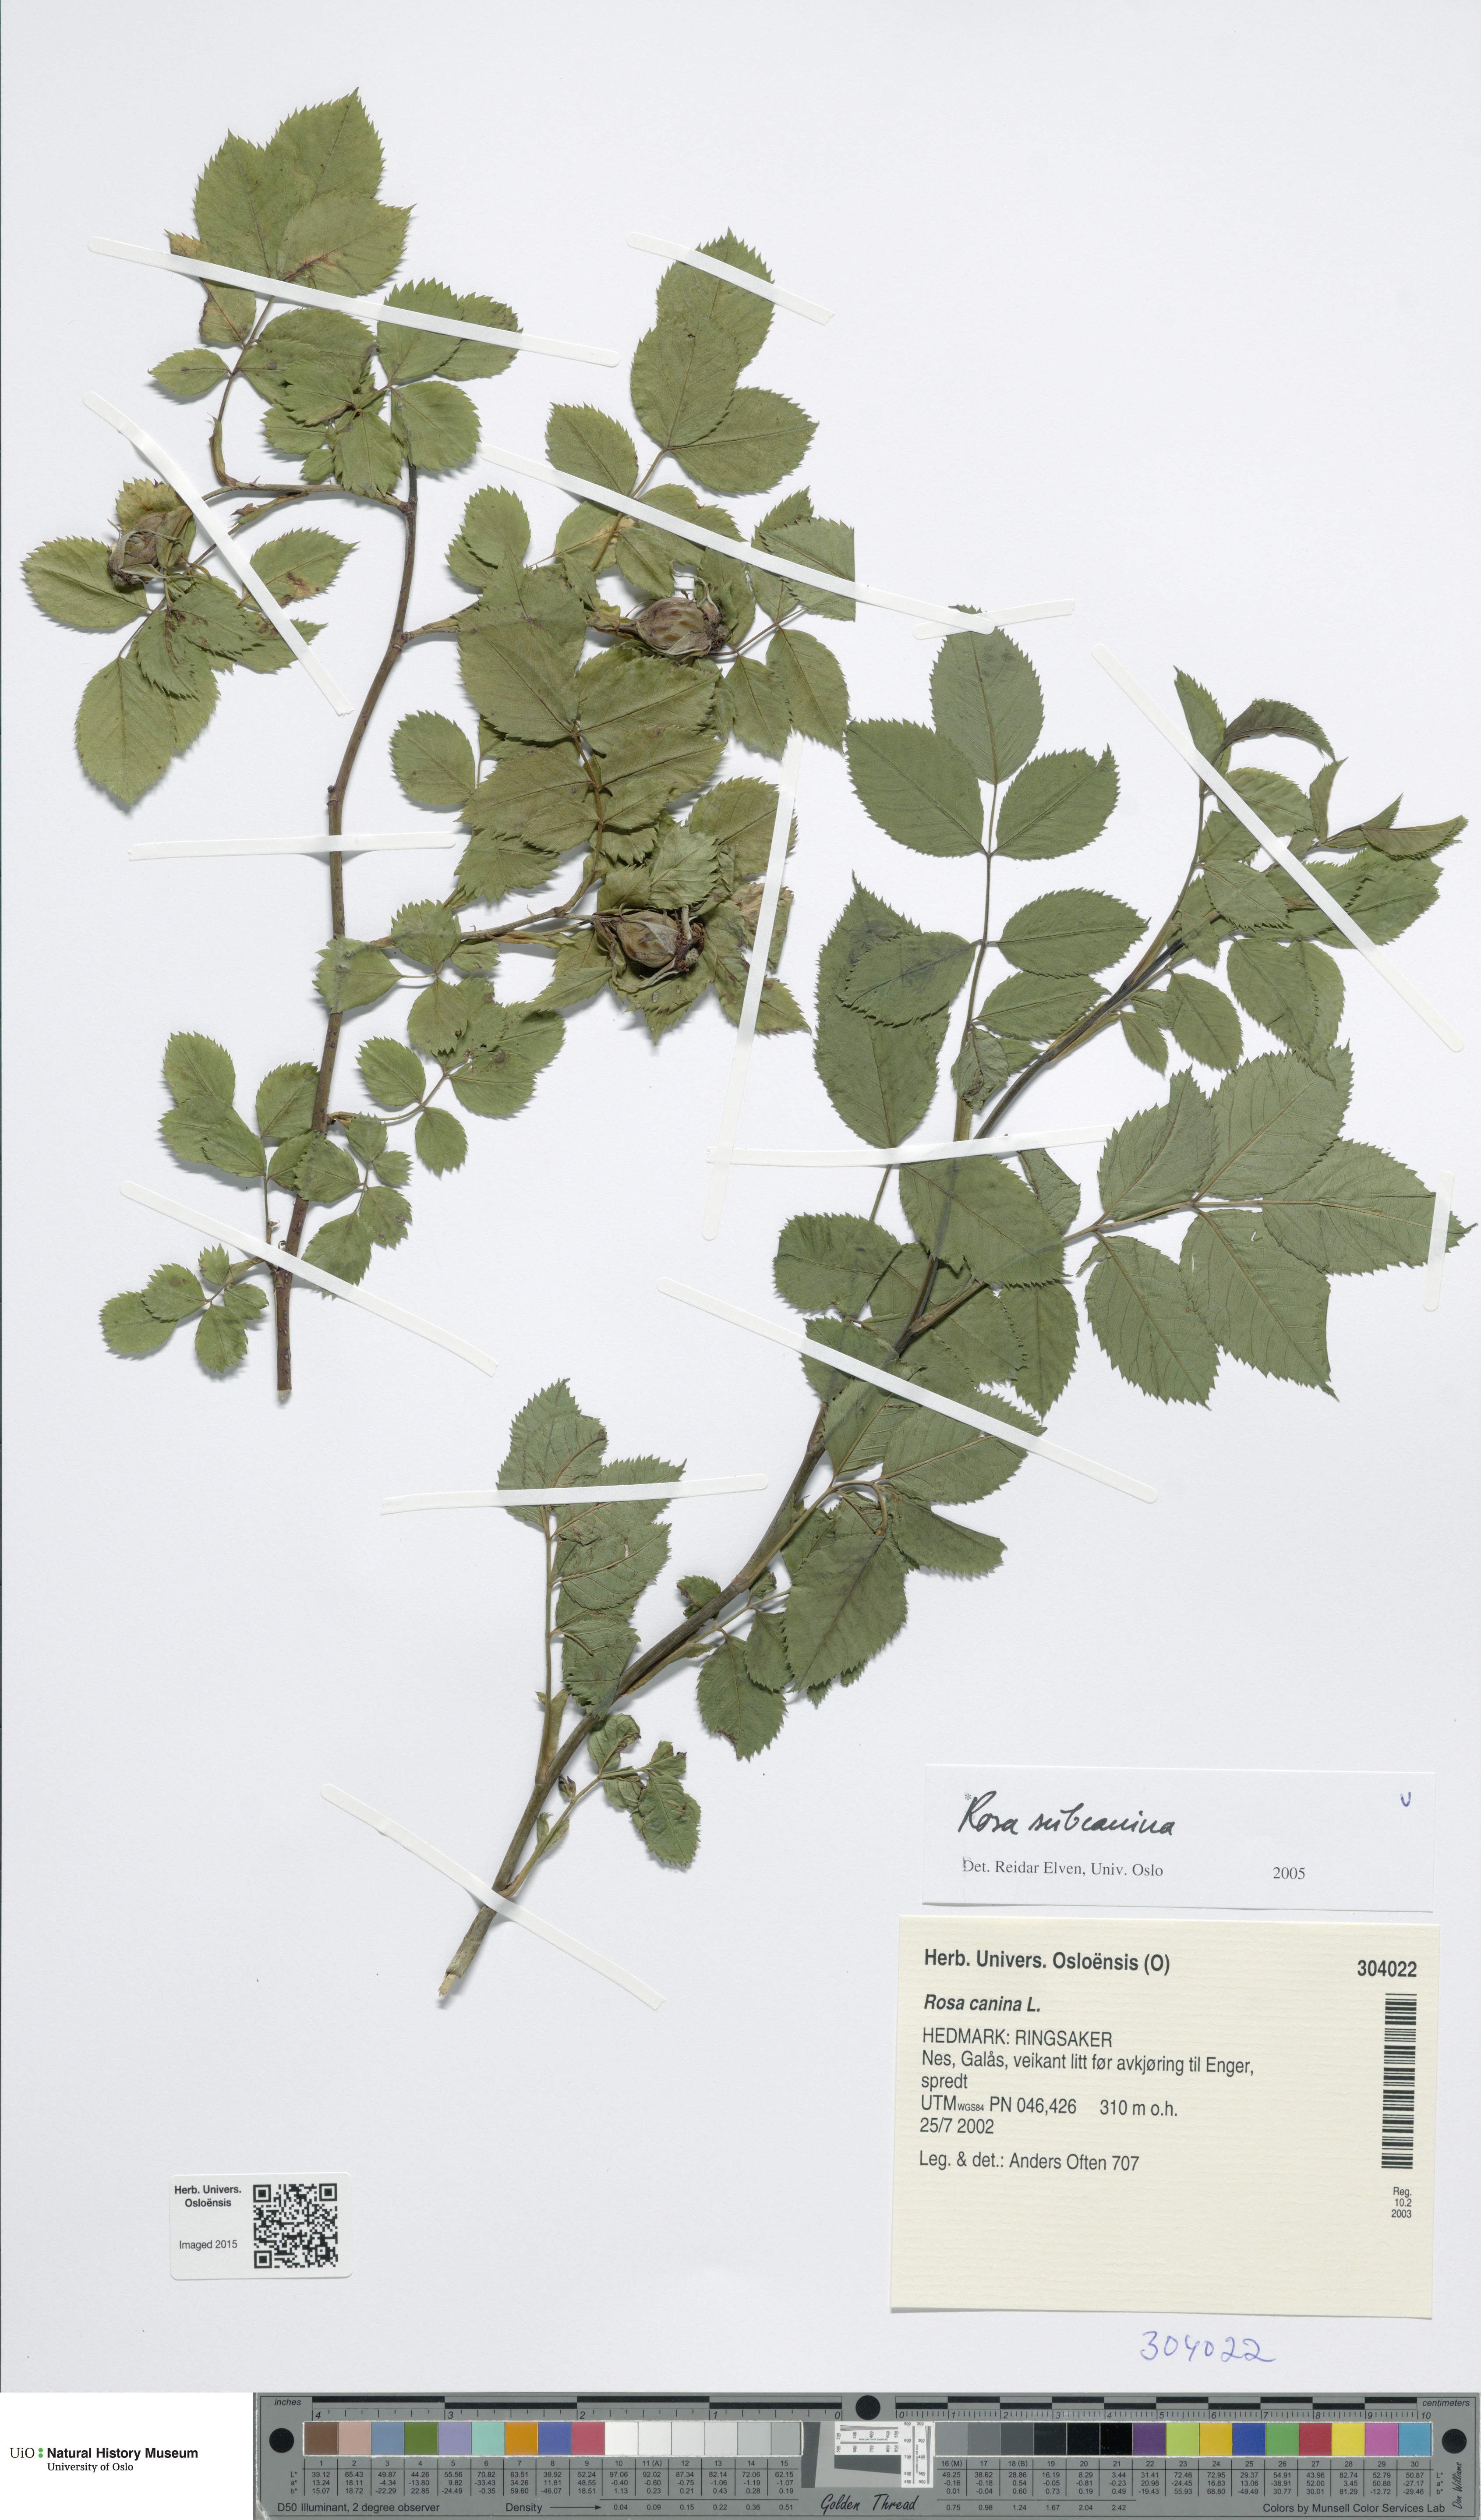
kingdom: Plantae
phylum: Tracheophyta
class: Magnoliopsida
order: Rosales
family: Rosaceae
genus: Rosa
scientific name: Rosa subcanina
